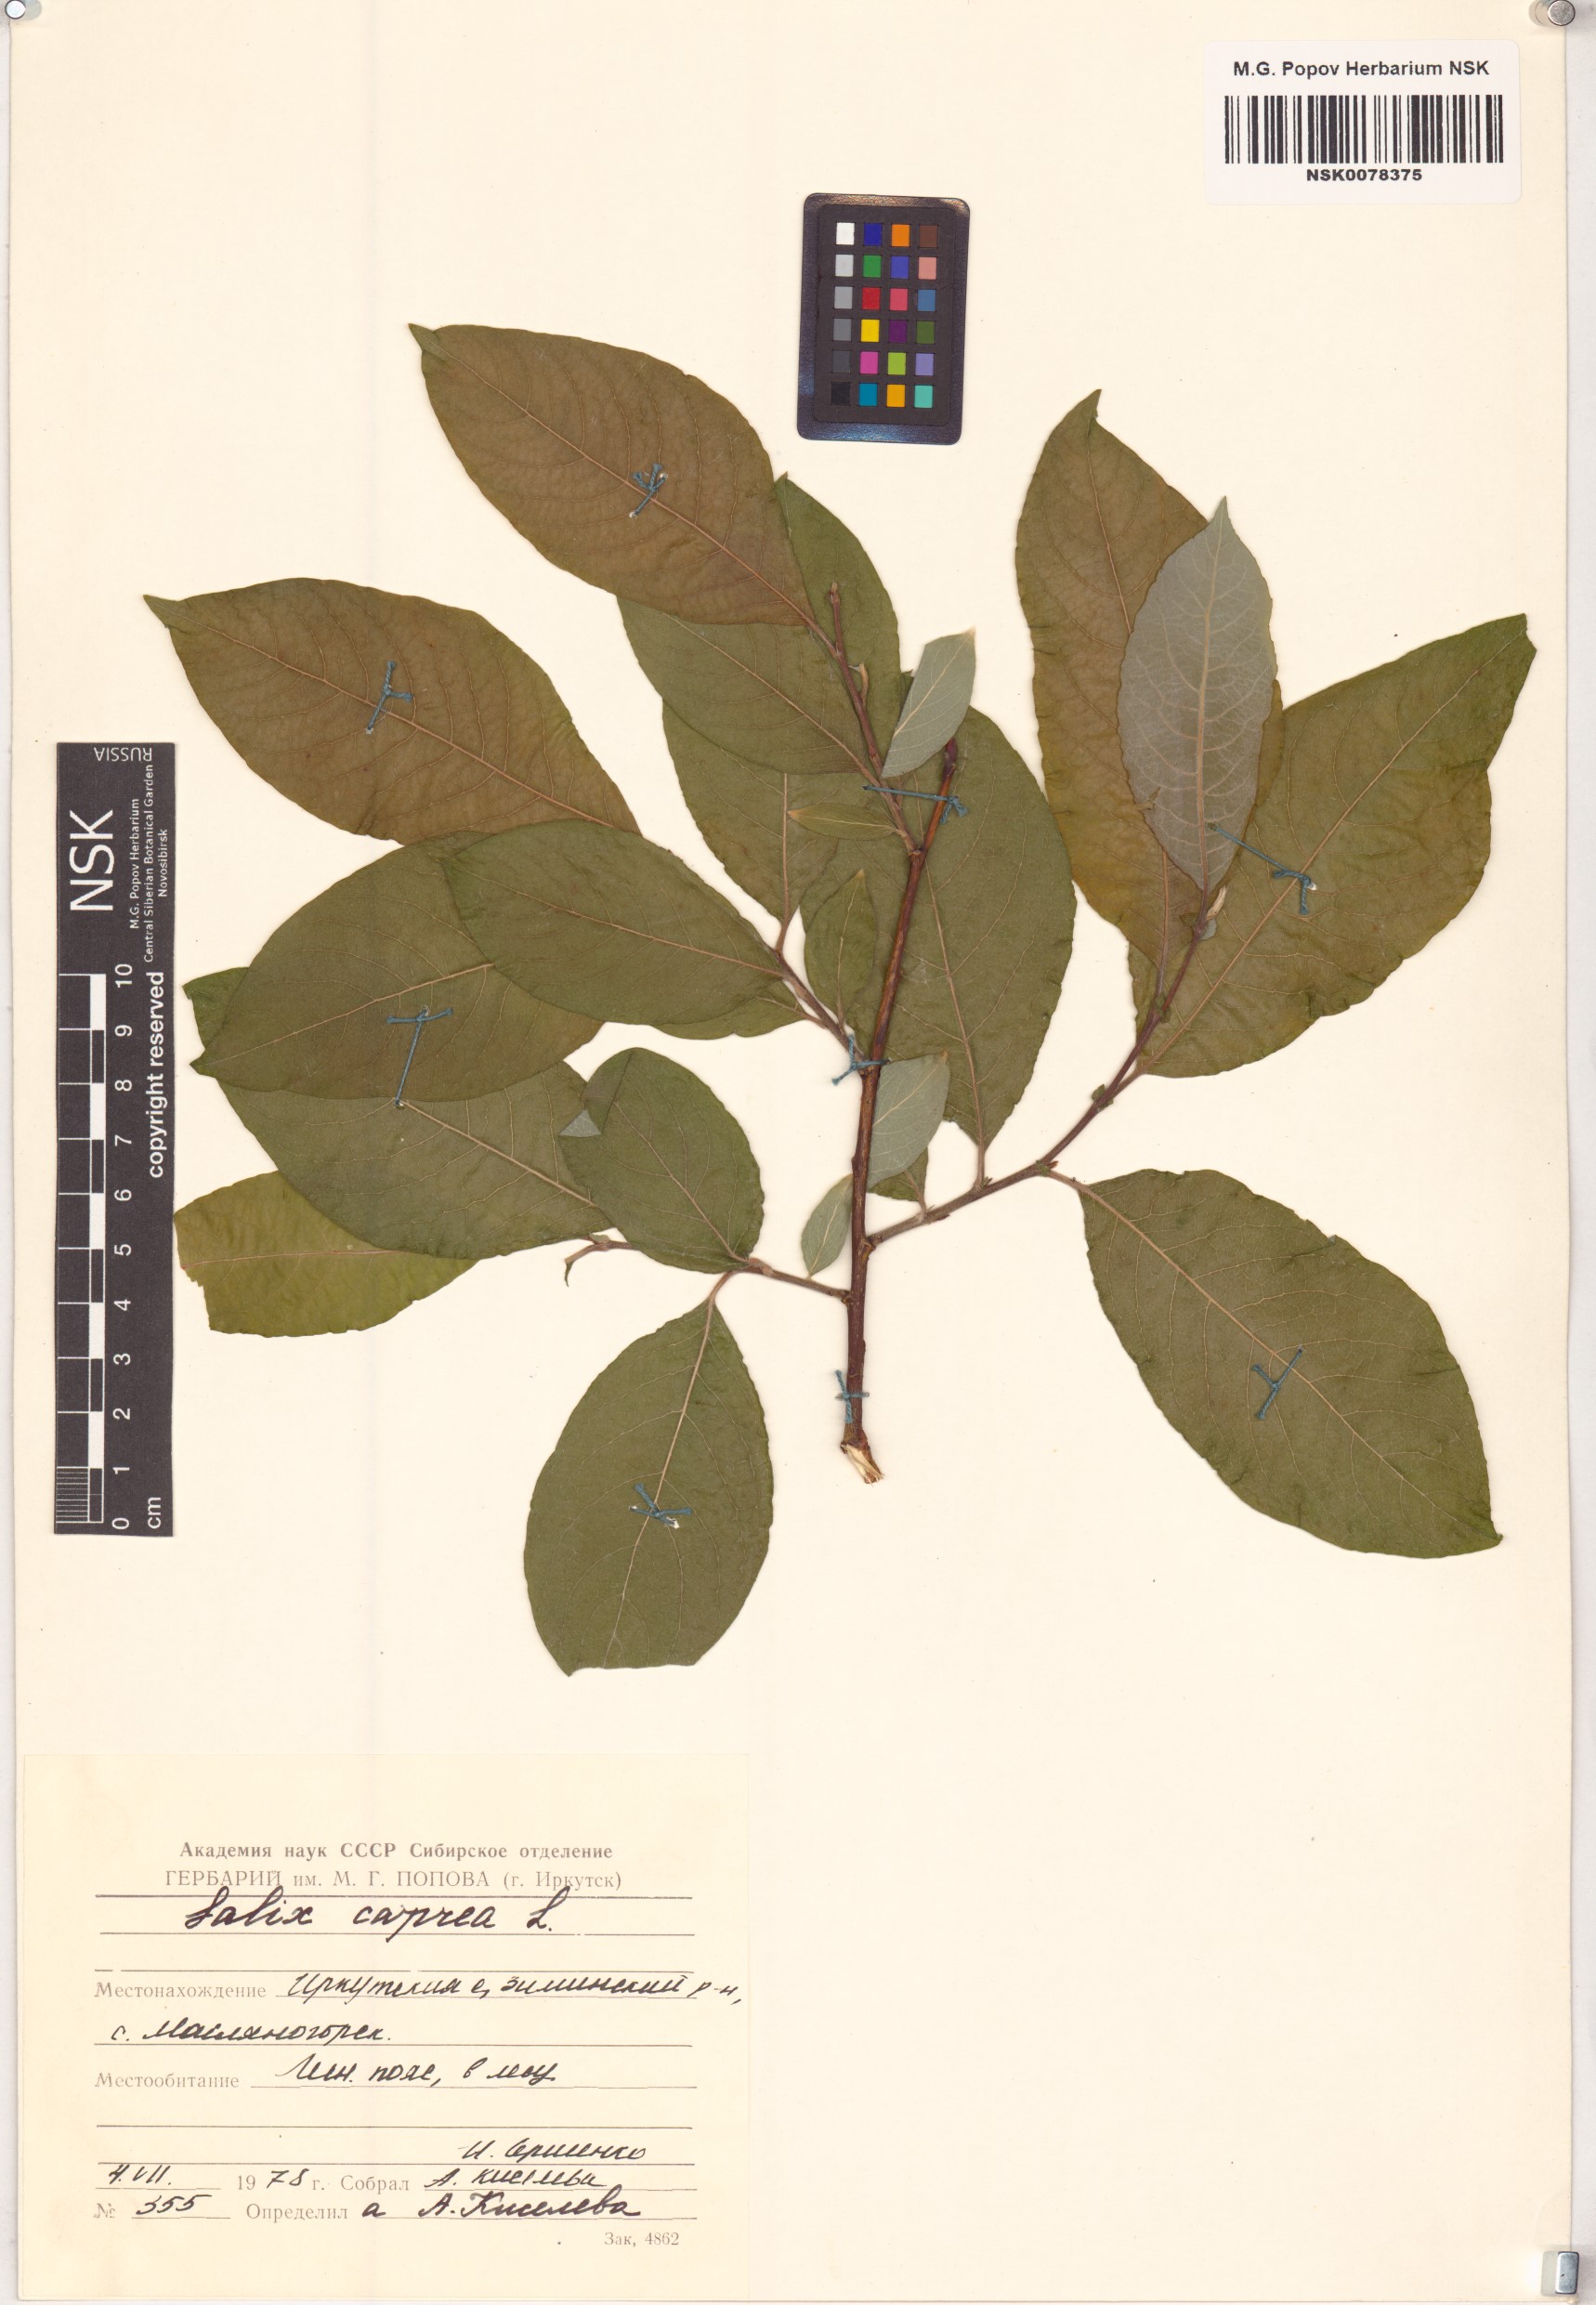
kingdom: Plantae
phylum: Tracheophyta
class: Magnoliopsida
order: Malpighiales
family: Salicaceae
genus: Salix
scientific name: Salix caprea
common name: Goat willow
